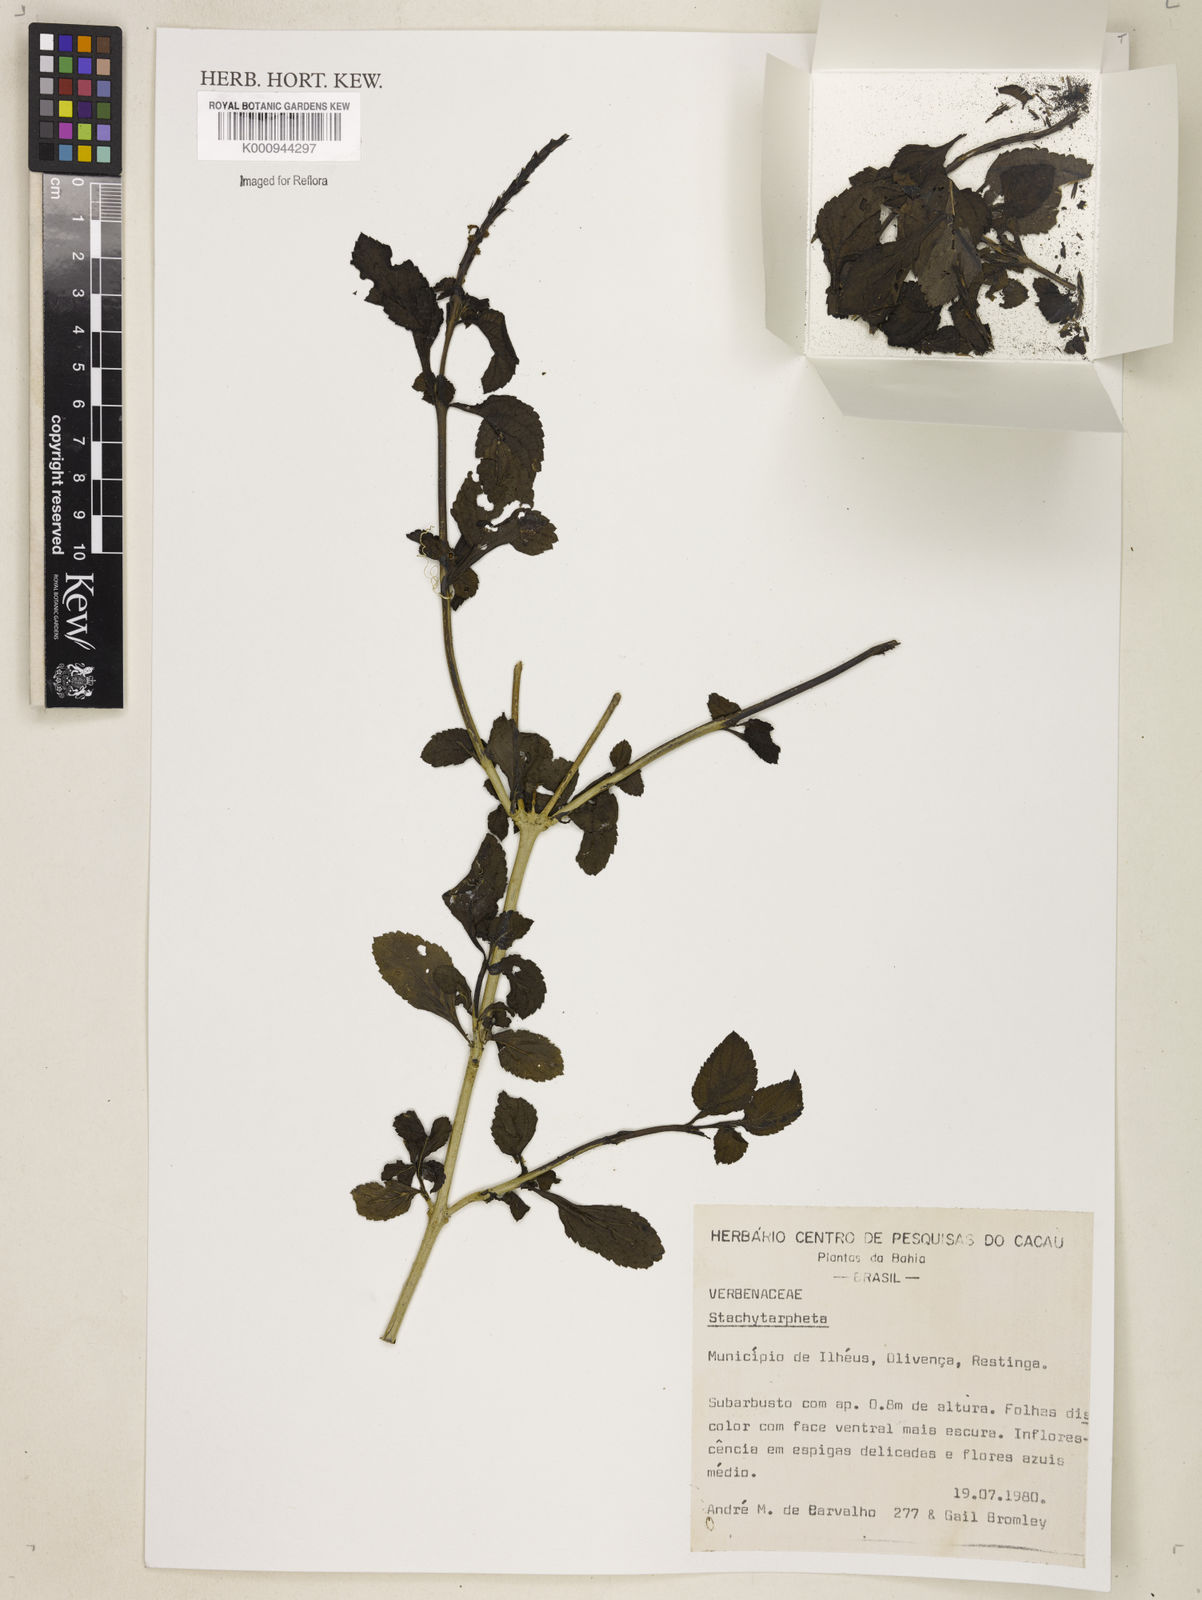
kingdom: Plantae
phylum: Tracheophyta
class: Magnoliopsida
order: Lamiales
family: Verbenaceae
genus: Stachytarpheta
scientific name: Stachytarpheta
